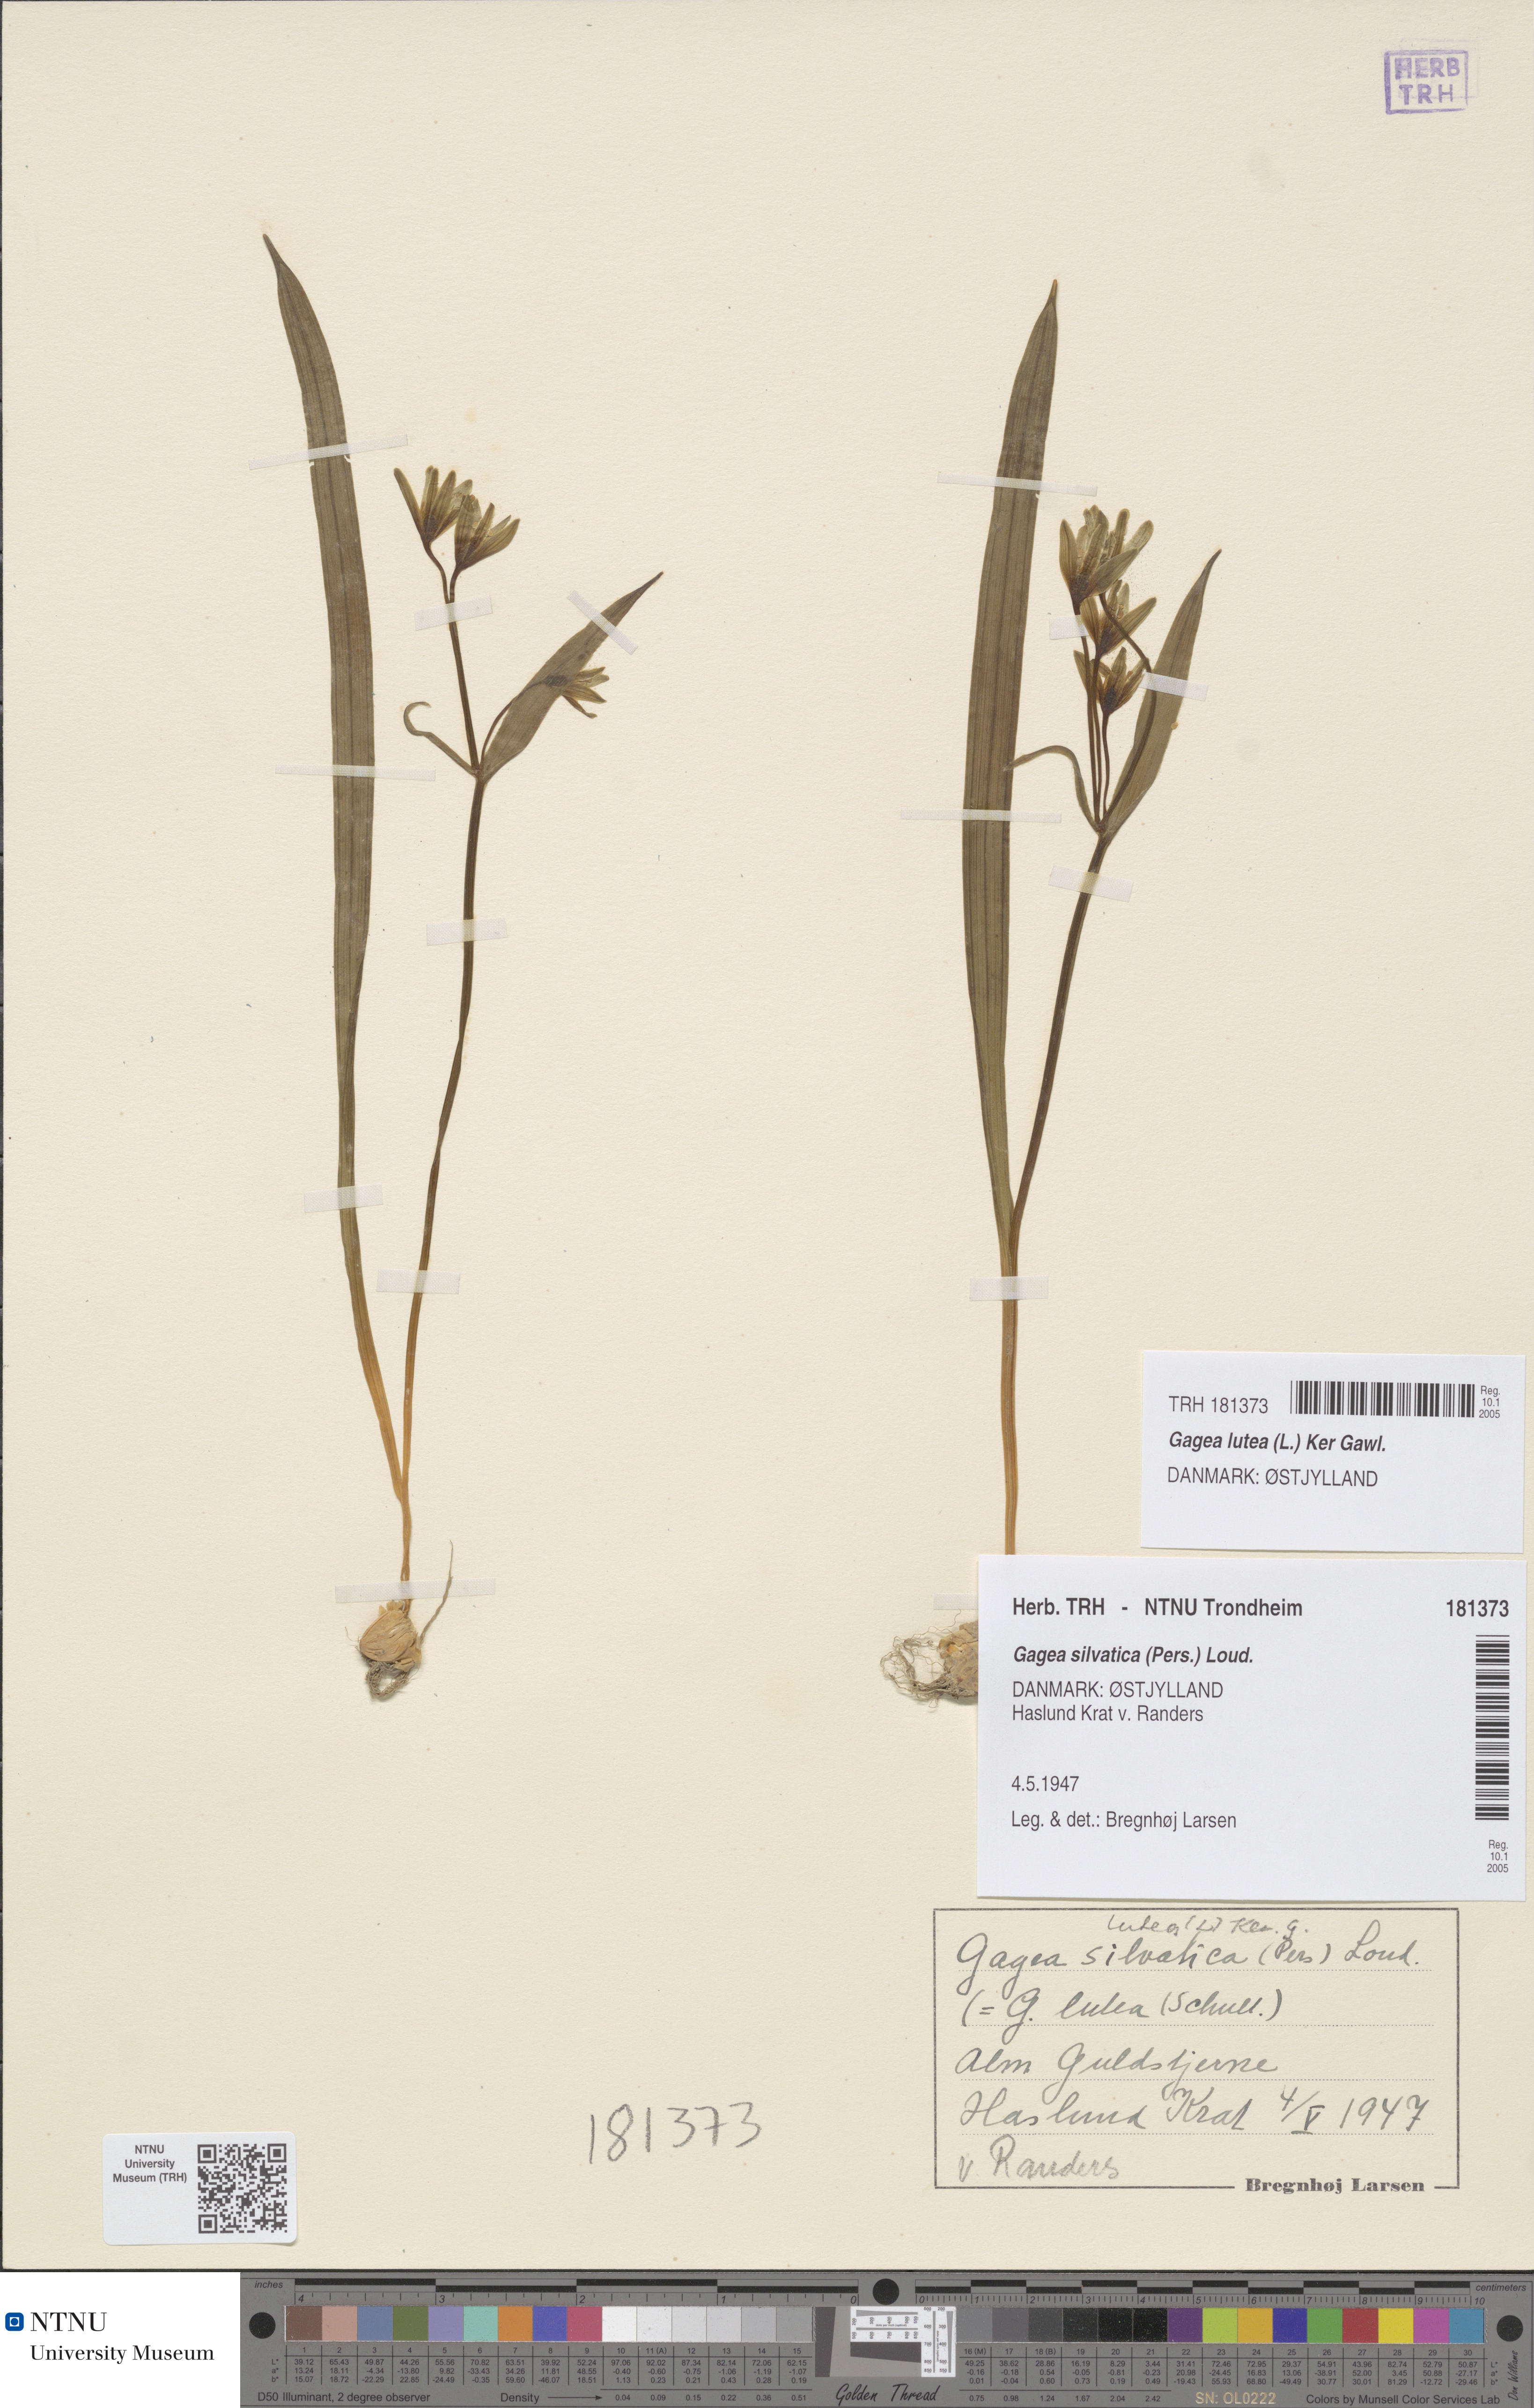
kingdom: Plantae
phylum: Tracheophyta
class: Liliopsida
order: Liliales
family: Liliaceae
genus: Gagea
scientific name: Gagea lutea
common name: Yellow star-of-bethlehem
